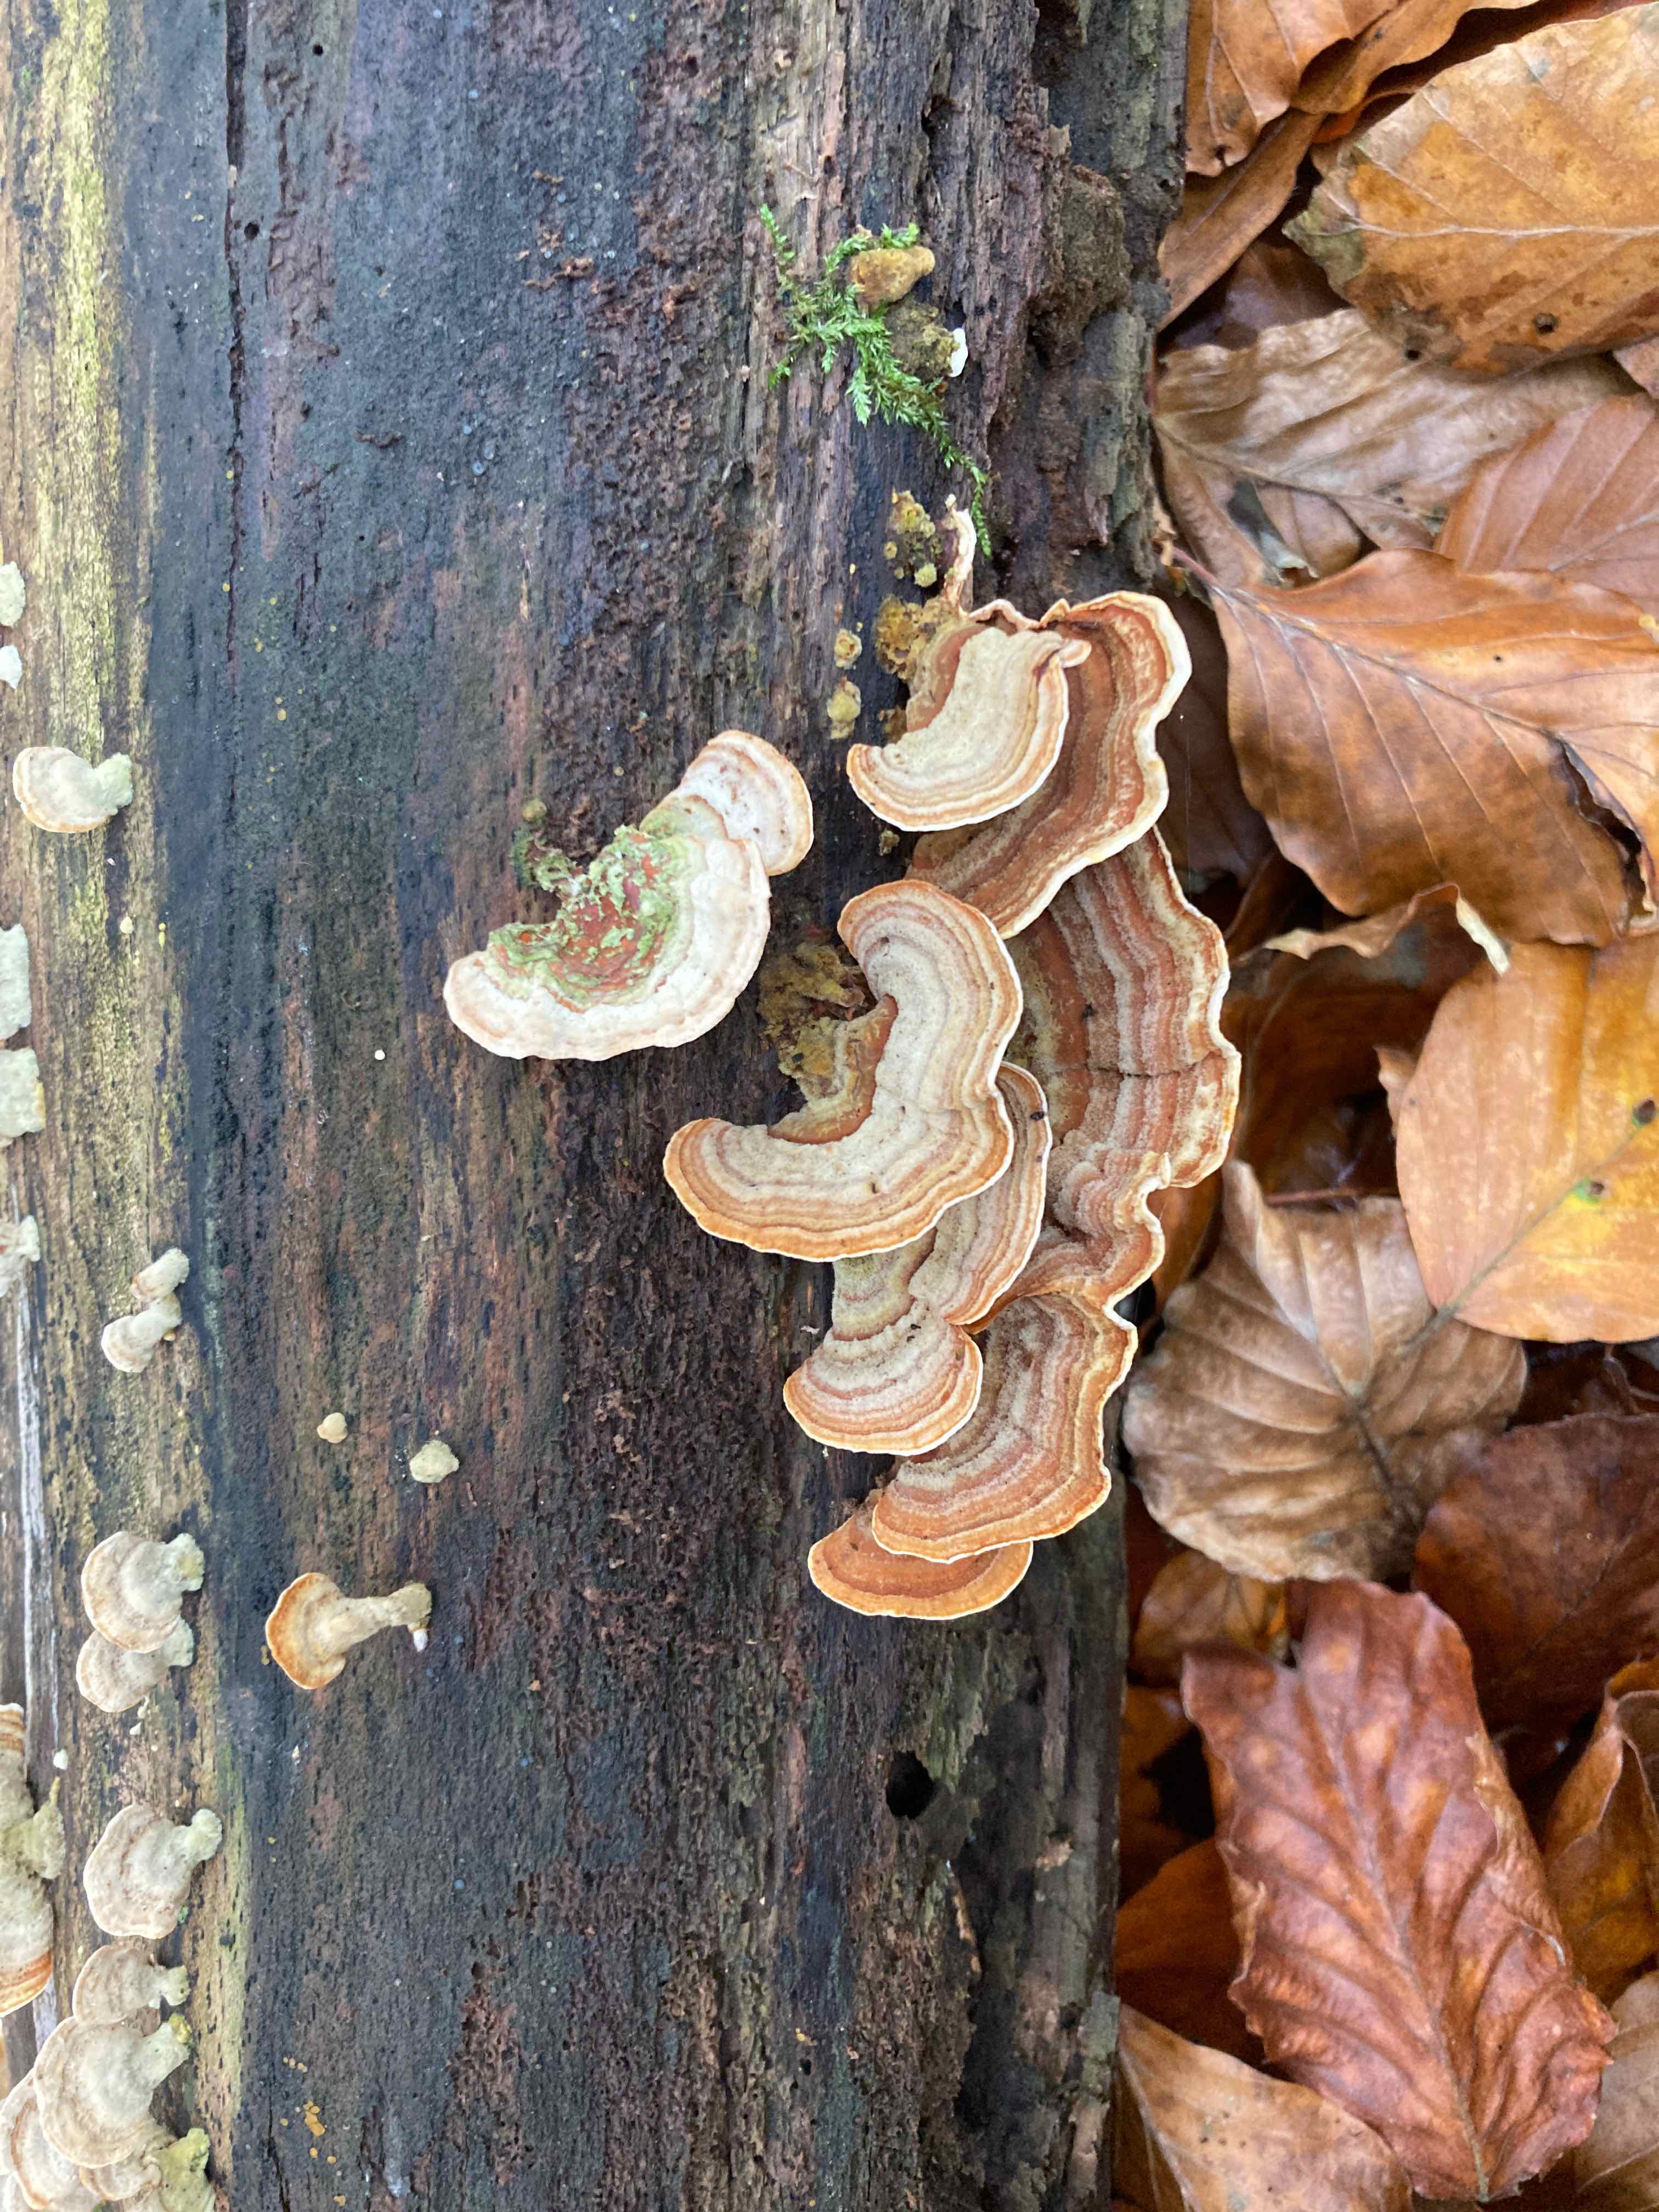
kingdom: Fungi
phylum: Basidiomycota
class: Agaricomycetes
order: Russulales
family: Stereaceae
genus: Stereum
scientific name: Stereum subtomentosum
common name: smuk lædersvamp
